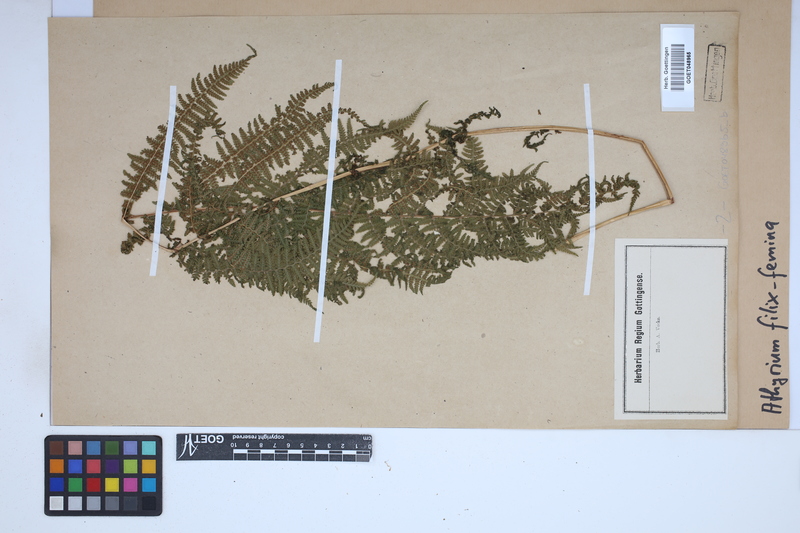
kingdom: Plantae
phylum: Tracheophyta
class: Polypodiopsida
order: Polypodiales
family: Athyriaceae
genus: Athyrium
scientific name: Athyrium filix-femina
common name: Lady fern
